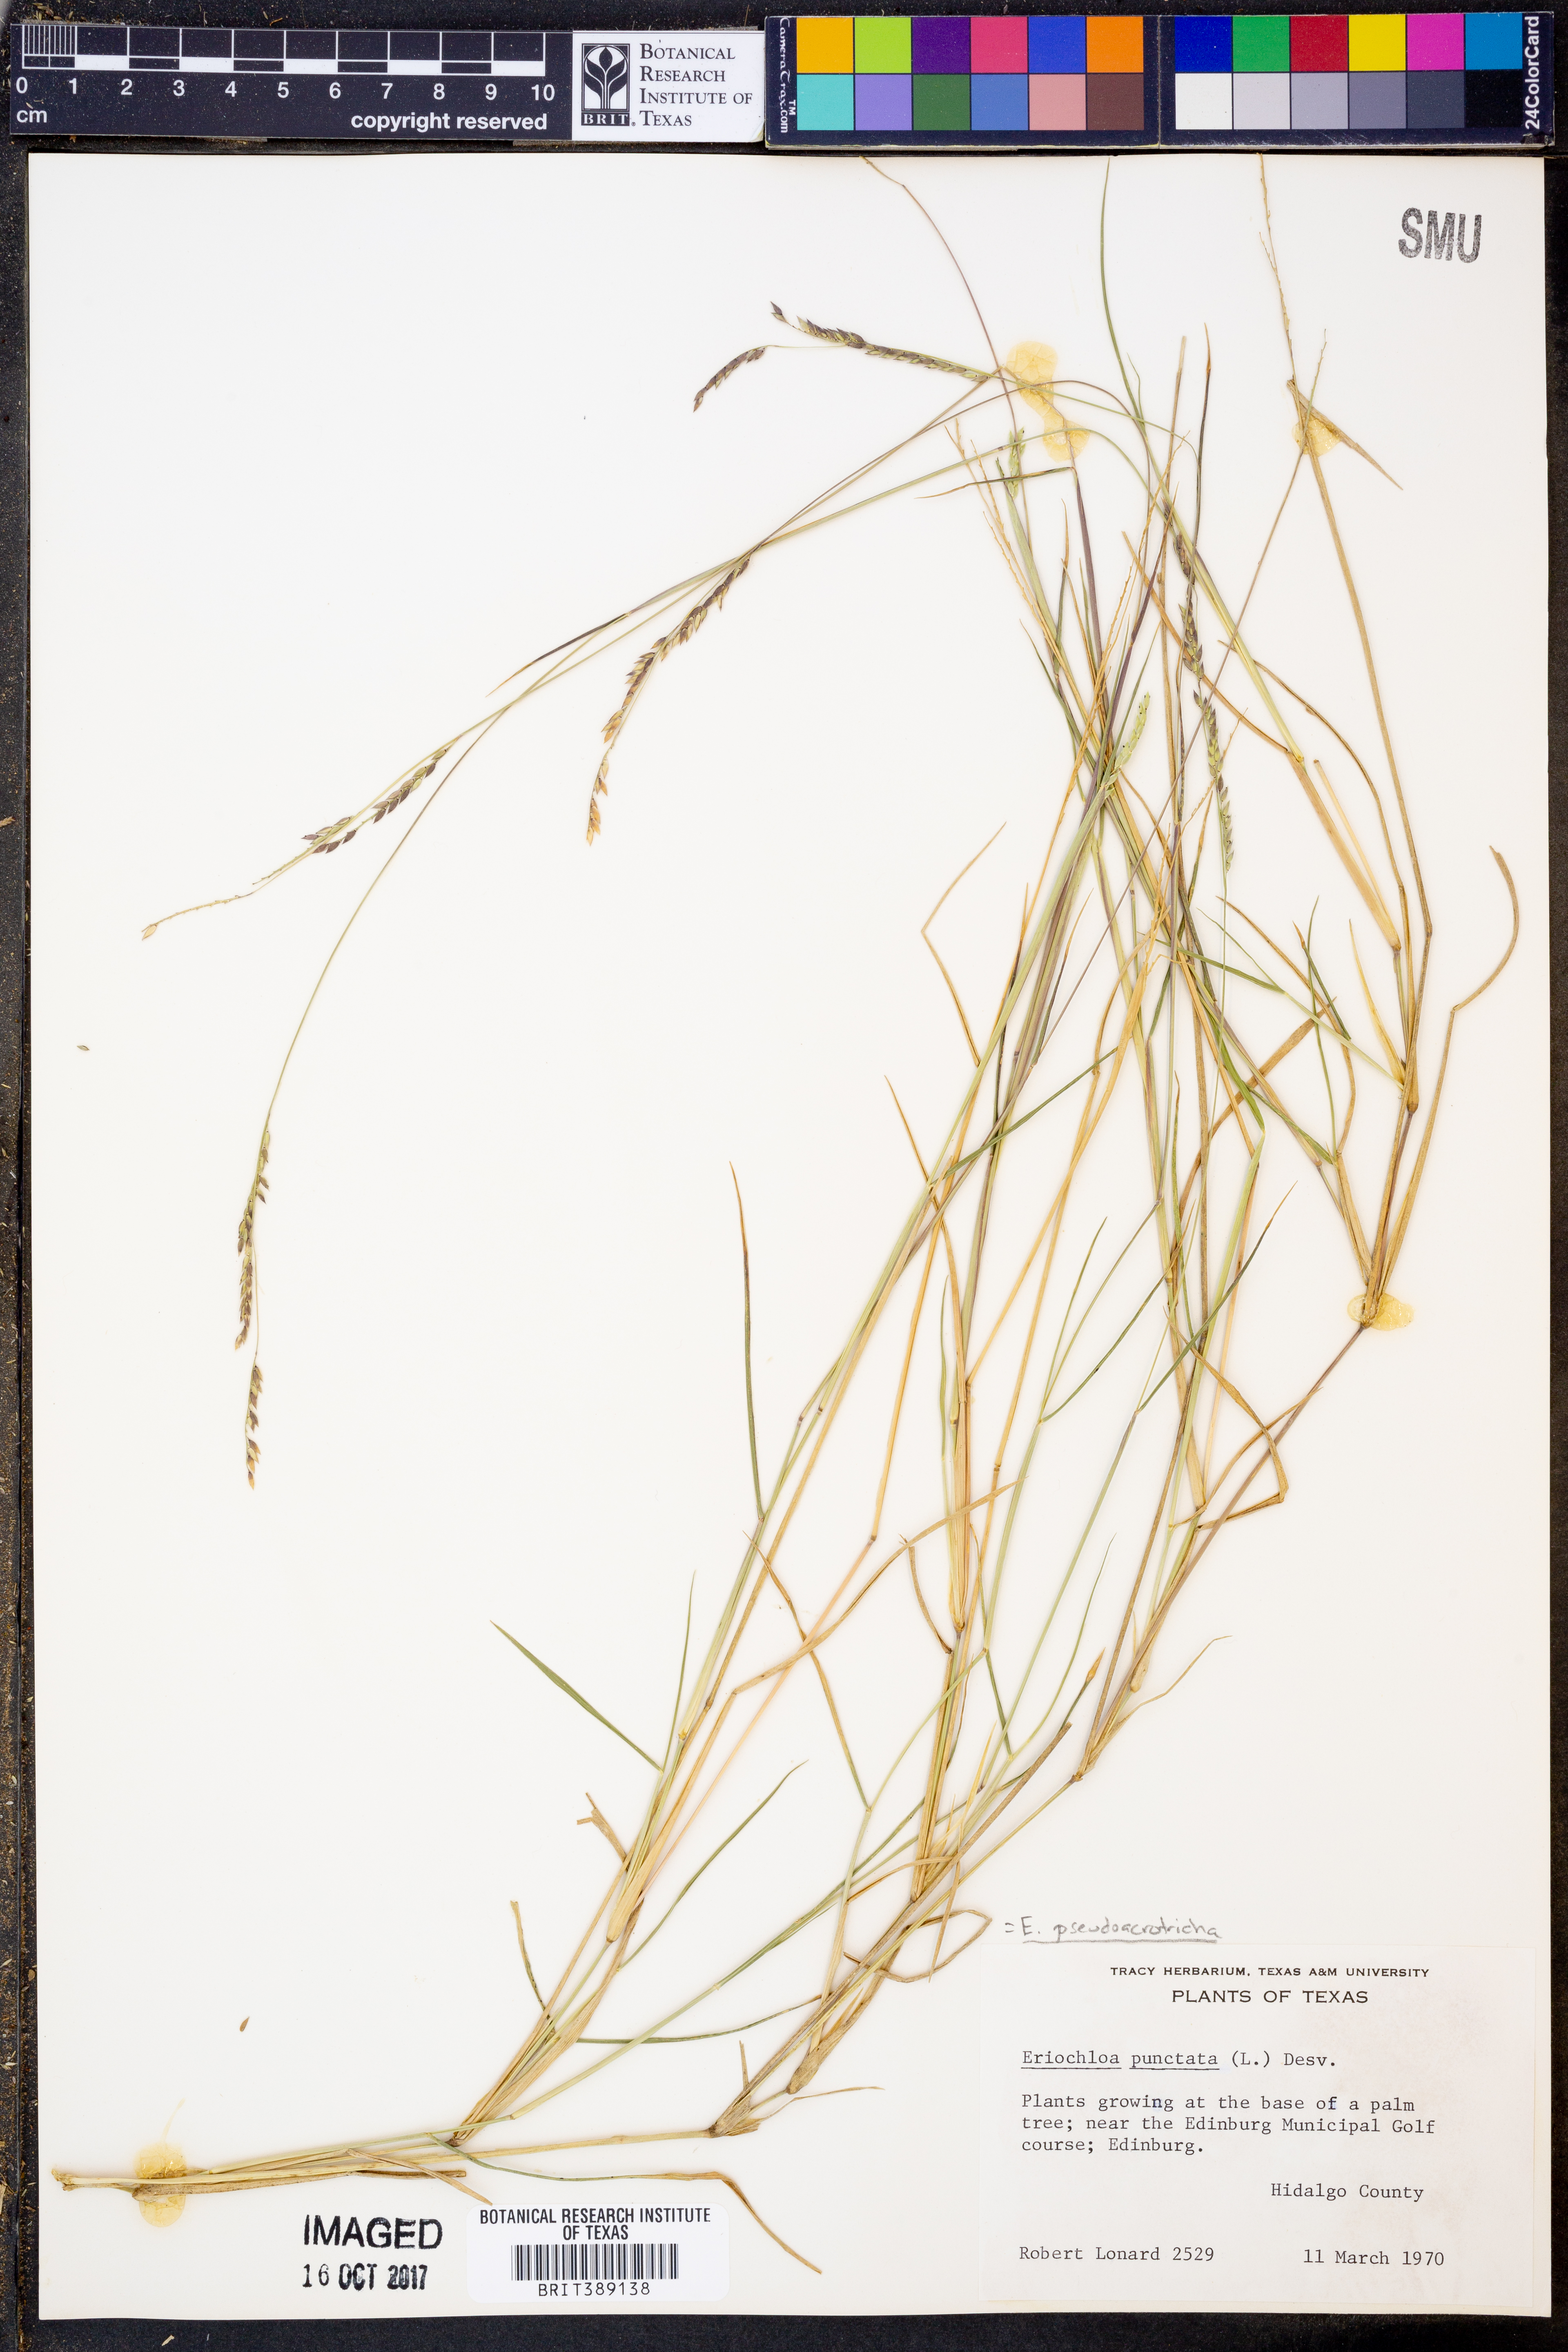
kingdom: Plantae
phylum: Tracheophyta
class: Liliopsida
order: Poales
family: Poaceae
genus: Urochloa
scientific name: Urochloa polystachya
